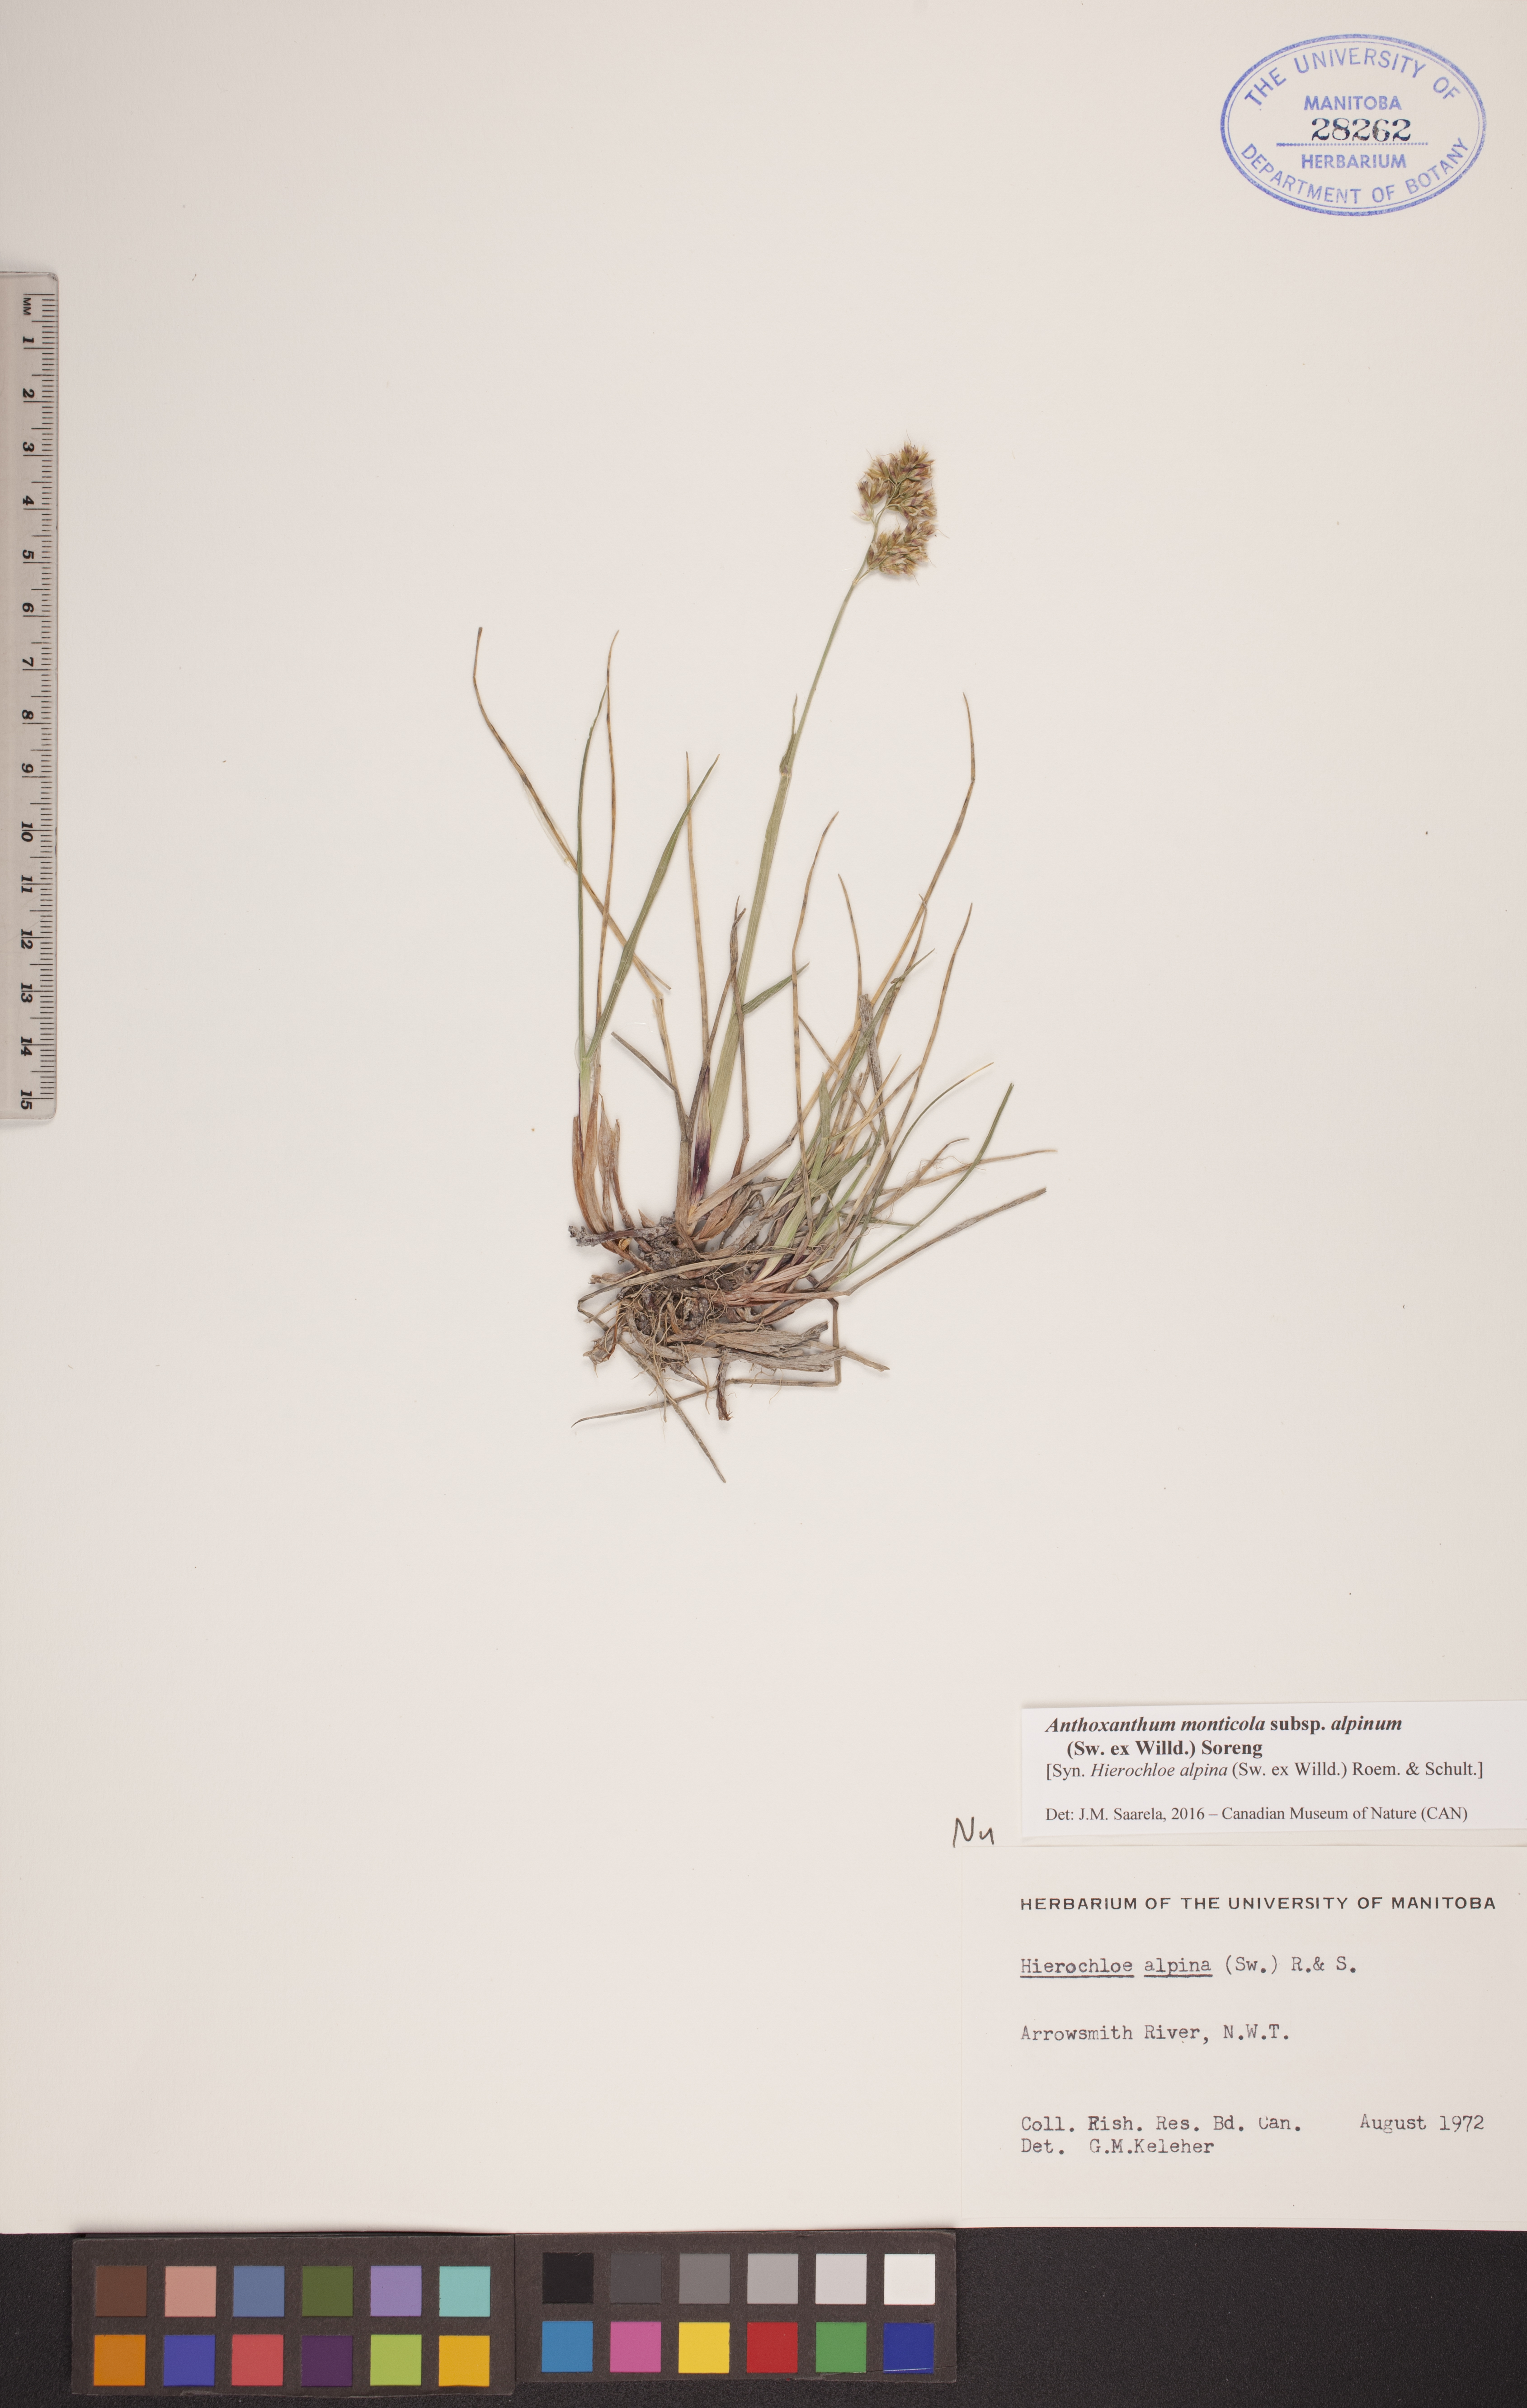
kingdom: Plantae
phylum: Tracheophyta
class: Liliopsida
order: Poales
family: Poaceae
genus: Anthoxanthum
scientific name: Anthoxanthum monticola
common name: Alpine sweetgrass
